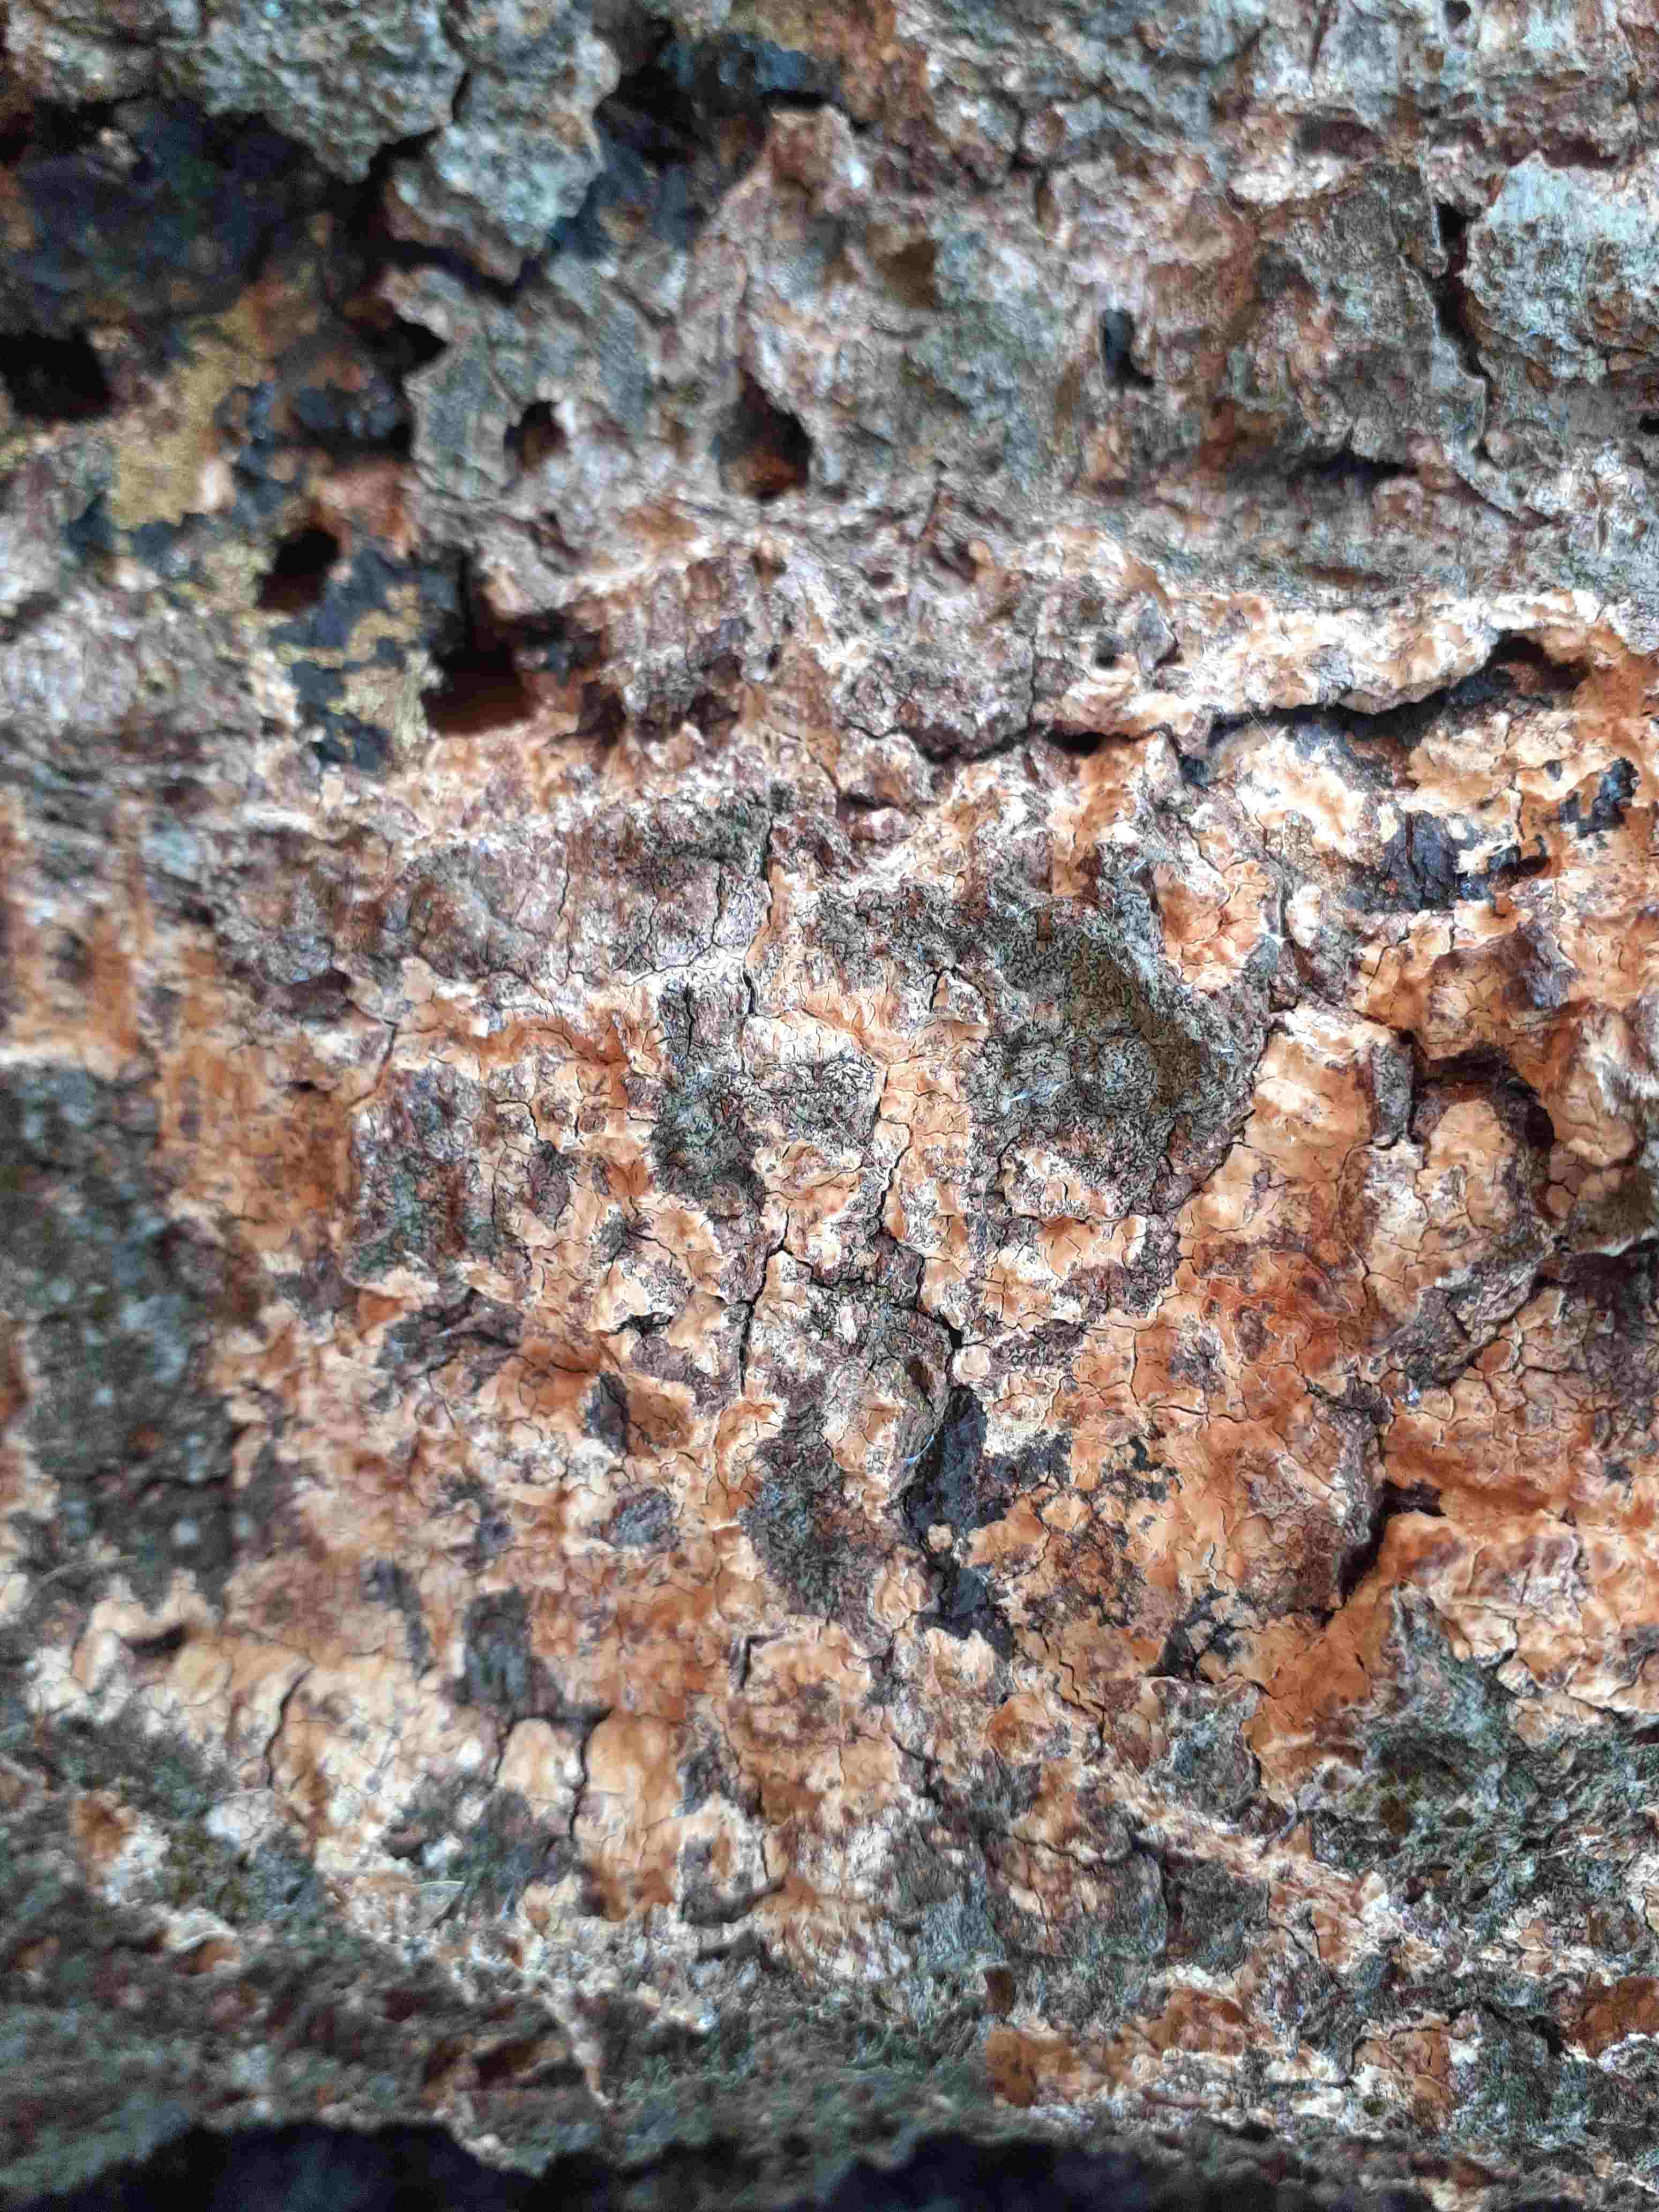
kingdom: Fungi
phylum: Basidiomycota
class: Agaricomycetes
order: Agaricales
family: Radulomycetaceae
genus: Radulomyces
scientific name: Radulomyces confluens
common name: glat naftalinskind
